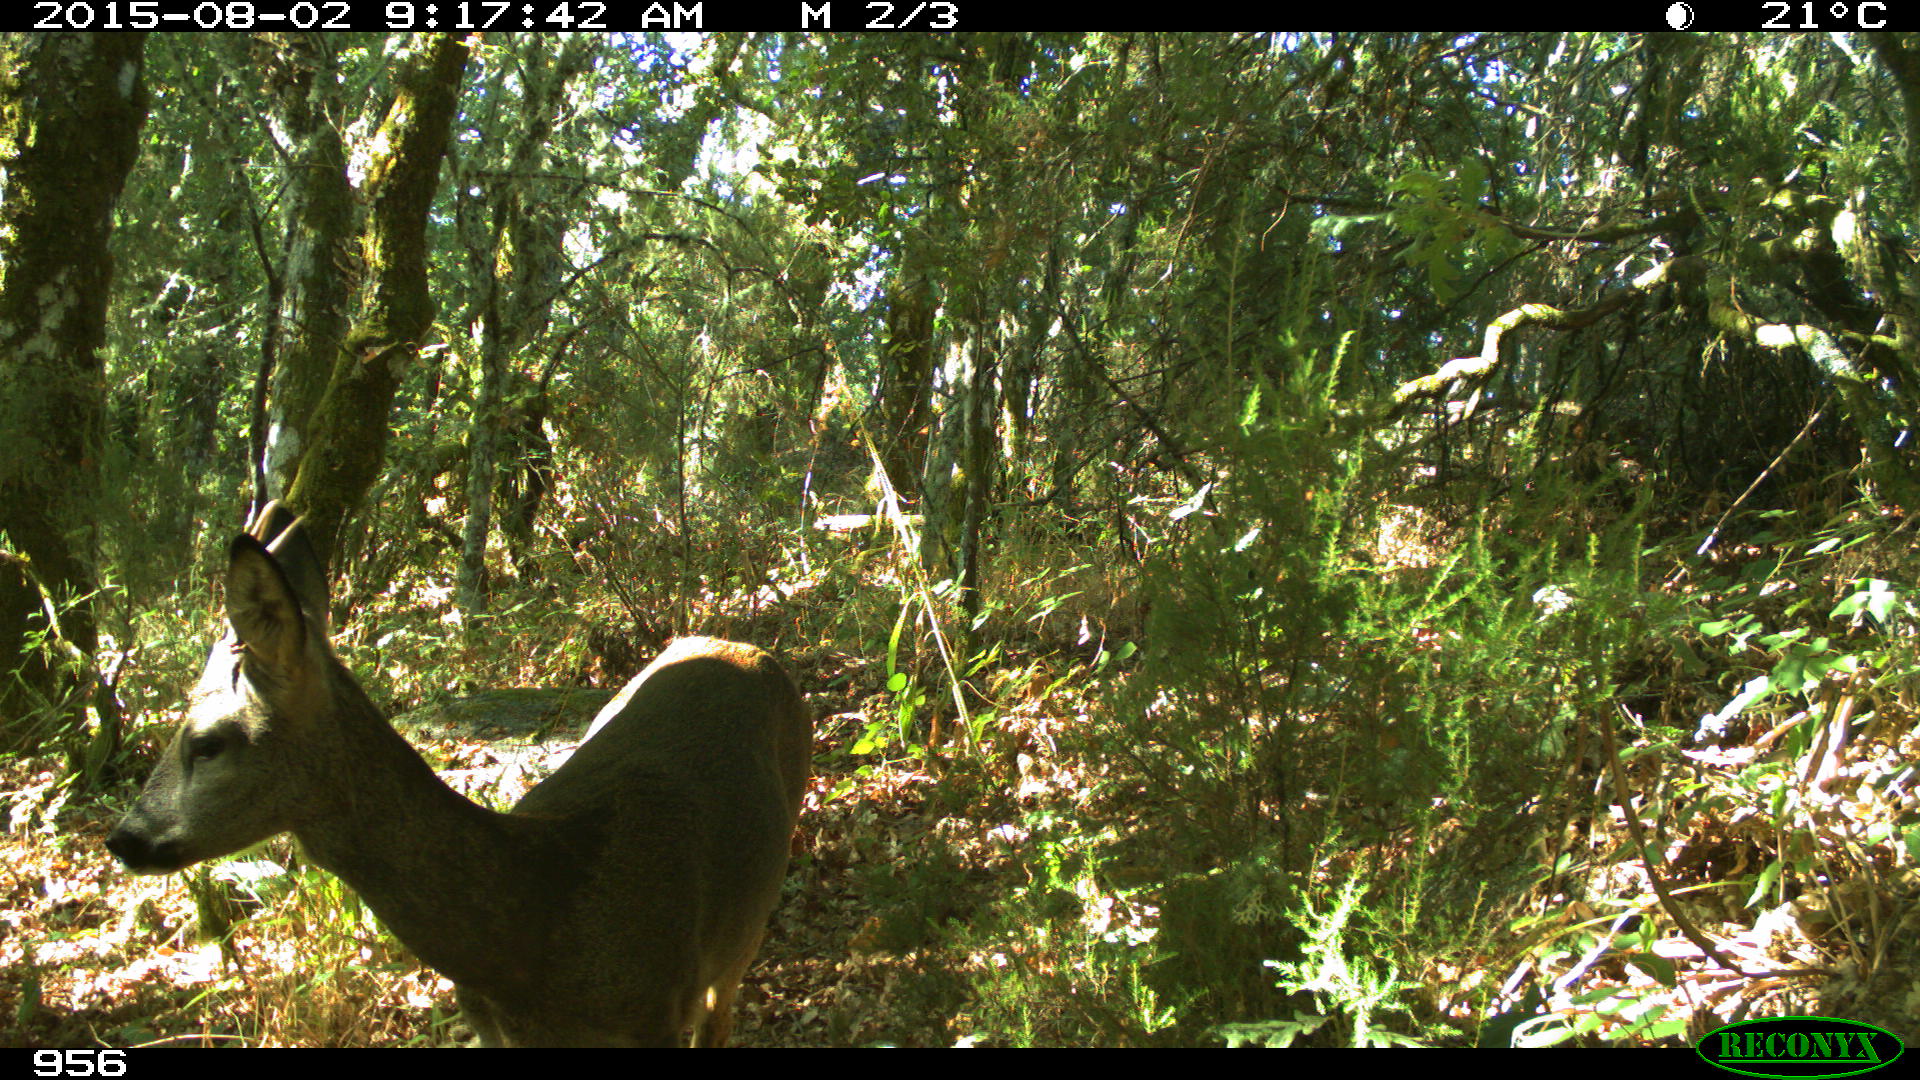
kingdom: Animalia
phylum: Chordata
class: Mammalia
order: Artiodactyla
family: Cervidae
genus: Capreolus
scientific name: Capreolus capreolus
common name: Western roe deer
